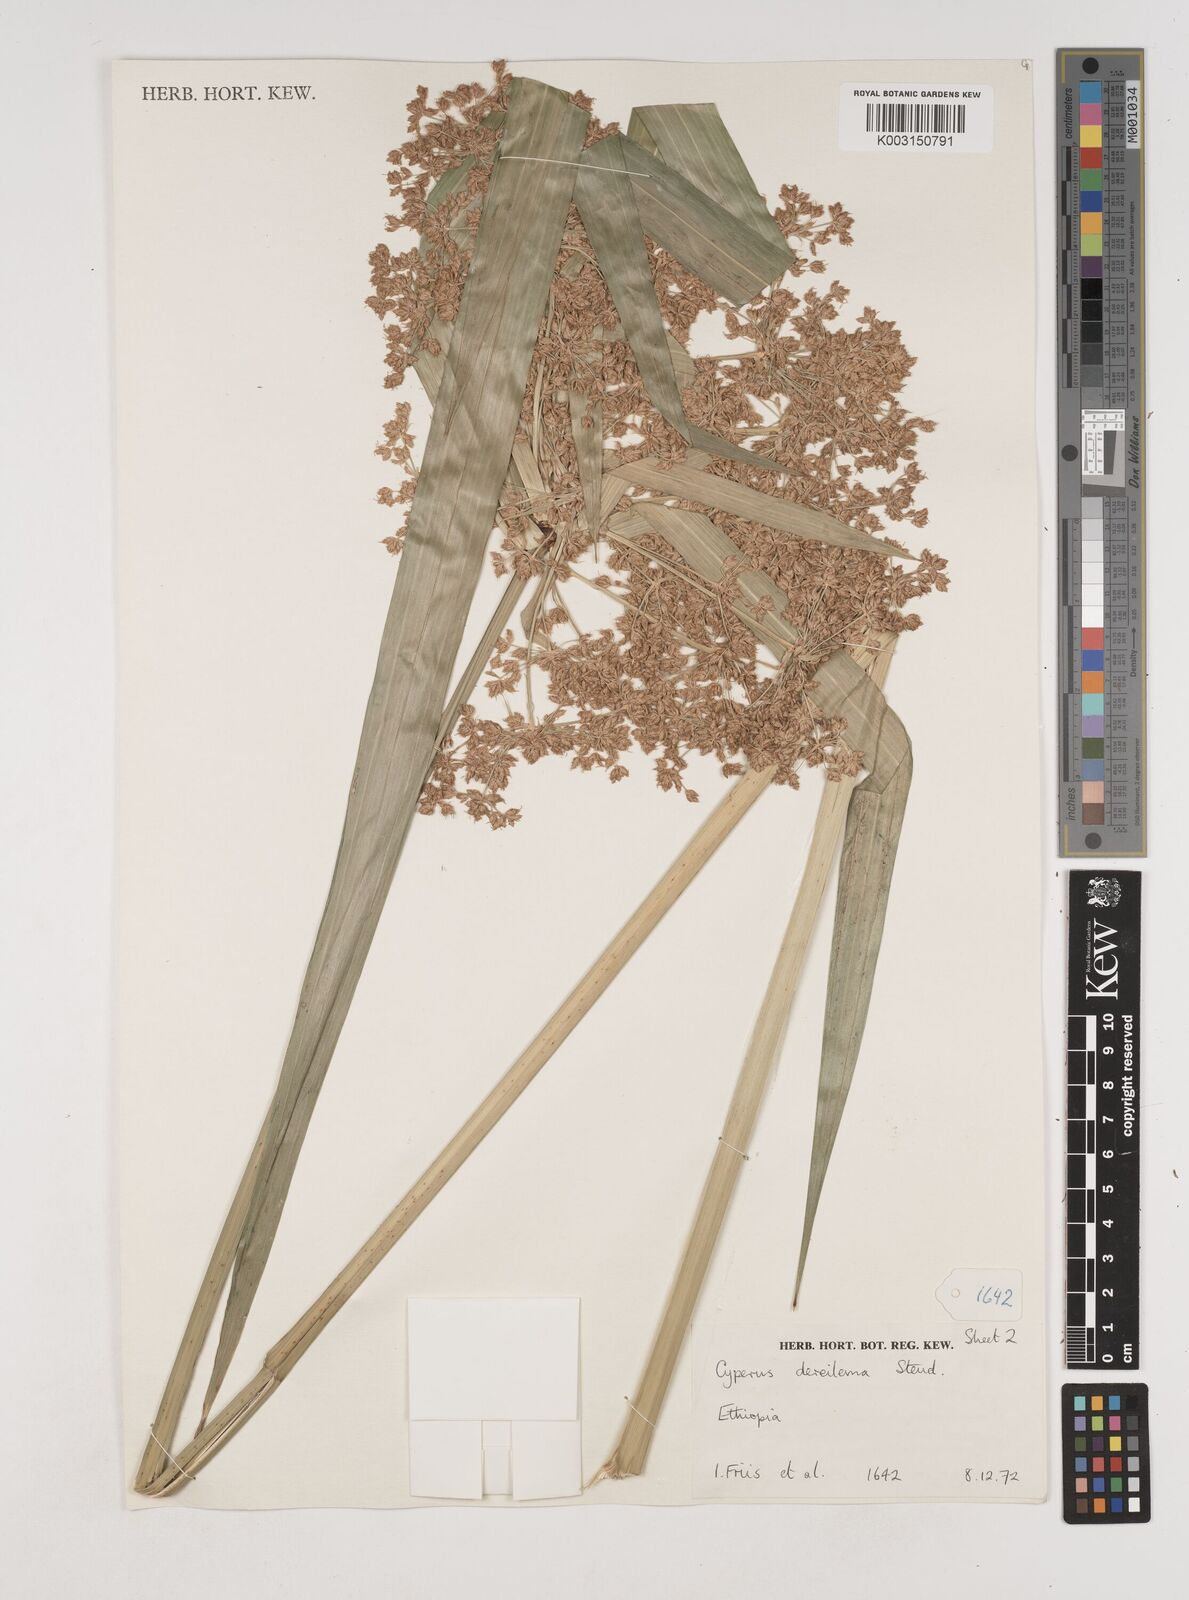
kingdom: Plantae
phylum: Tracheophyta
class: Liliopsida
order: Poales
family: Cyperaceae
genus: Cyperus
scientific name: Cyperus derreilema
